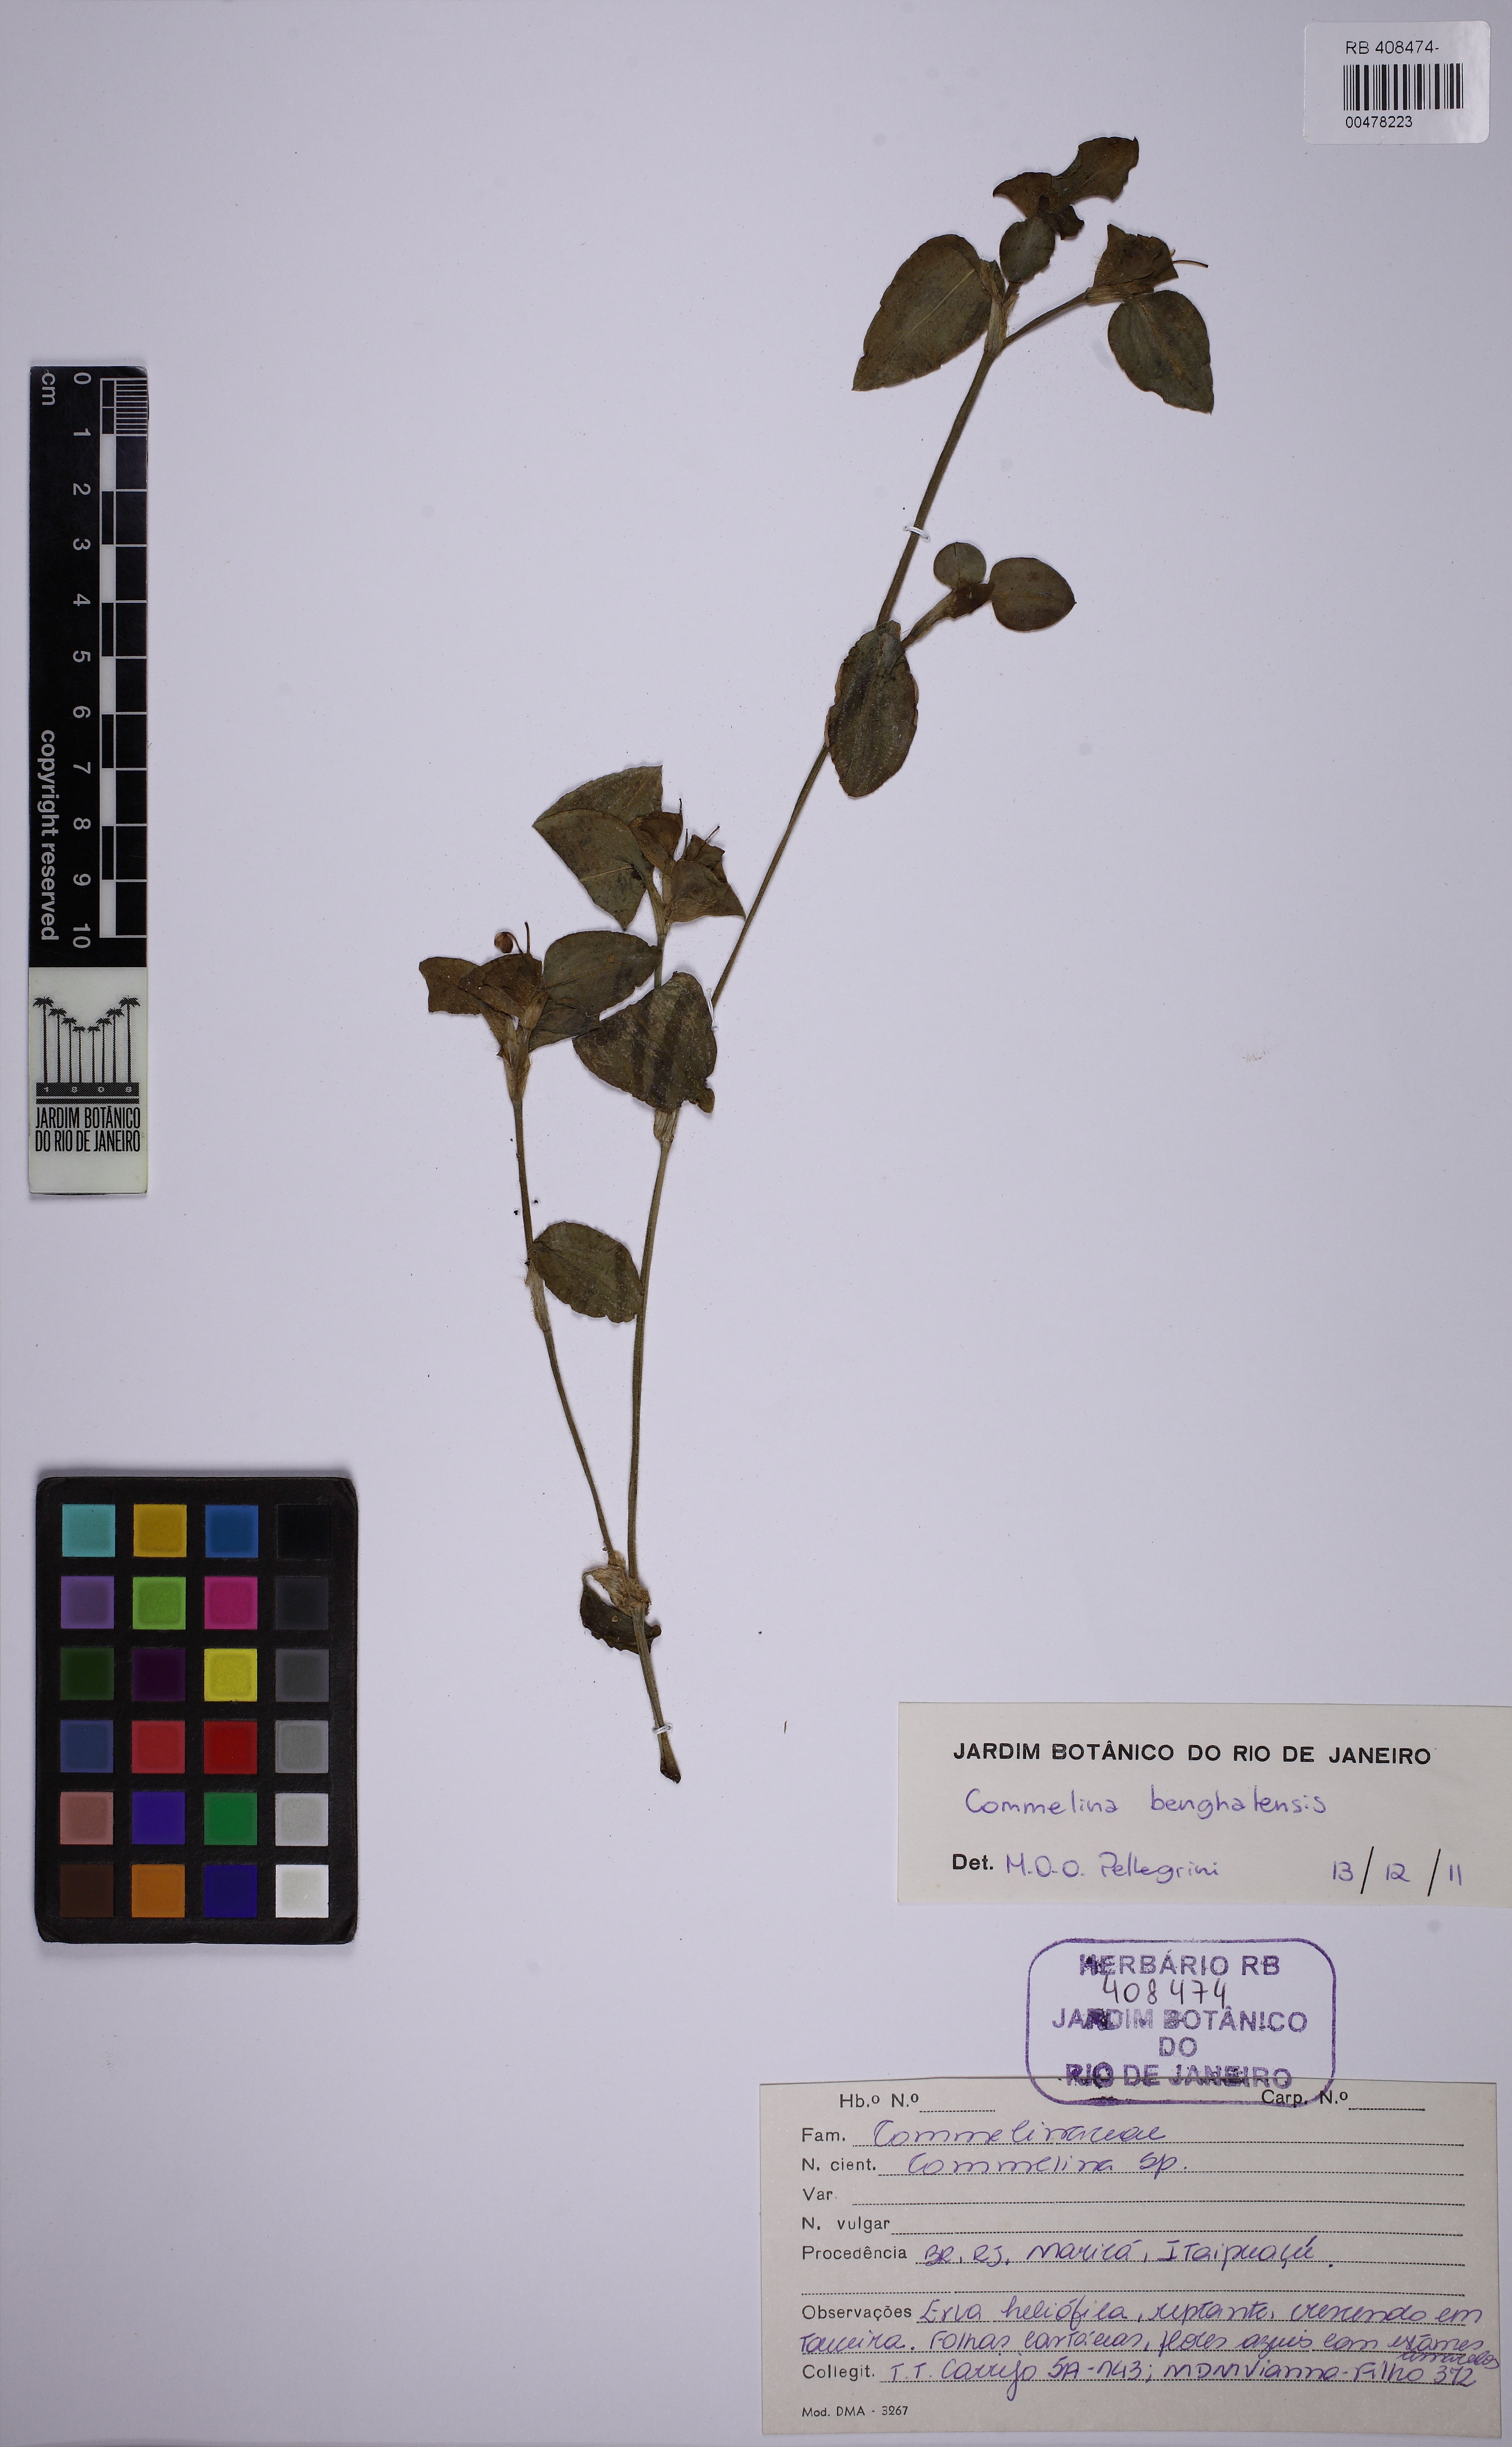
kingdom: Plantae
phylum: Tracheophyta
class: Liliopsida
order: Commelinales
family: Commelinaceae
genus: Commelina
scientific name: Commelina benghalensis
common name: Jio
